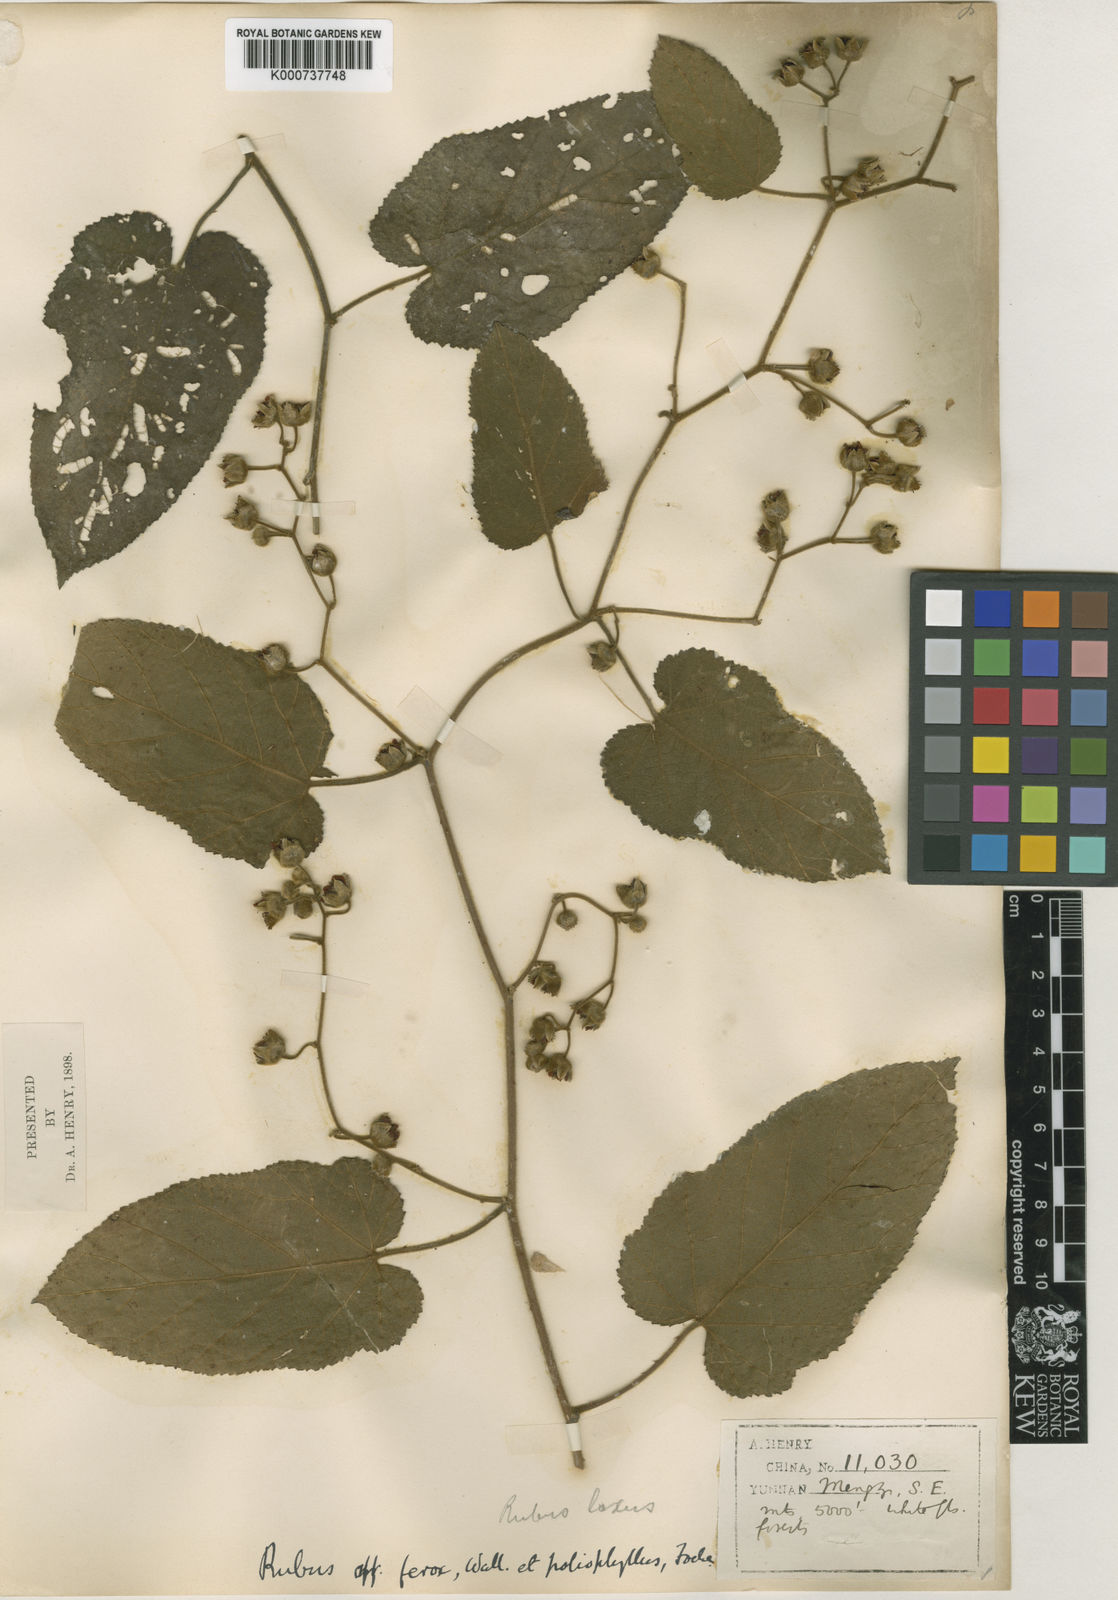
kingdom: Plantae
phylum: Tracheophyta
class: Magnoliopsida
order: Rosales
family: Rosaceae
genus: Rubus
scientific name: Rubus efferatus
